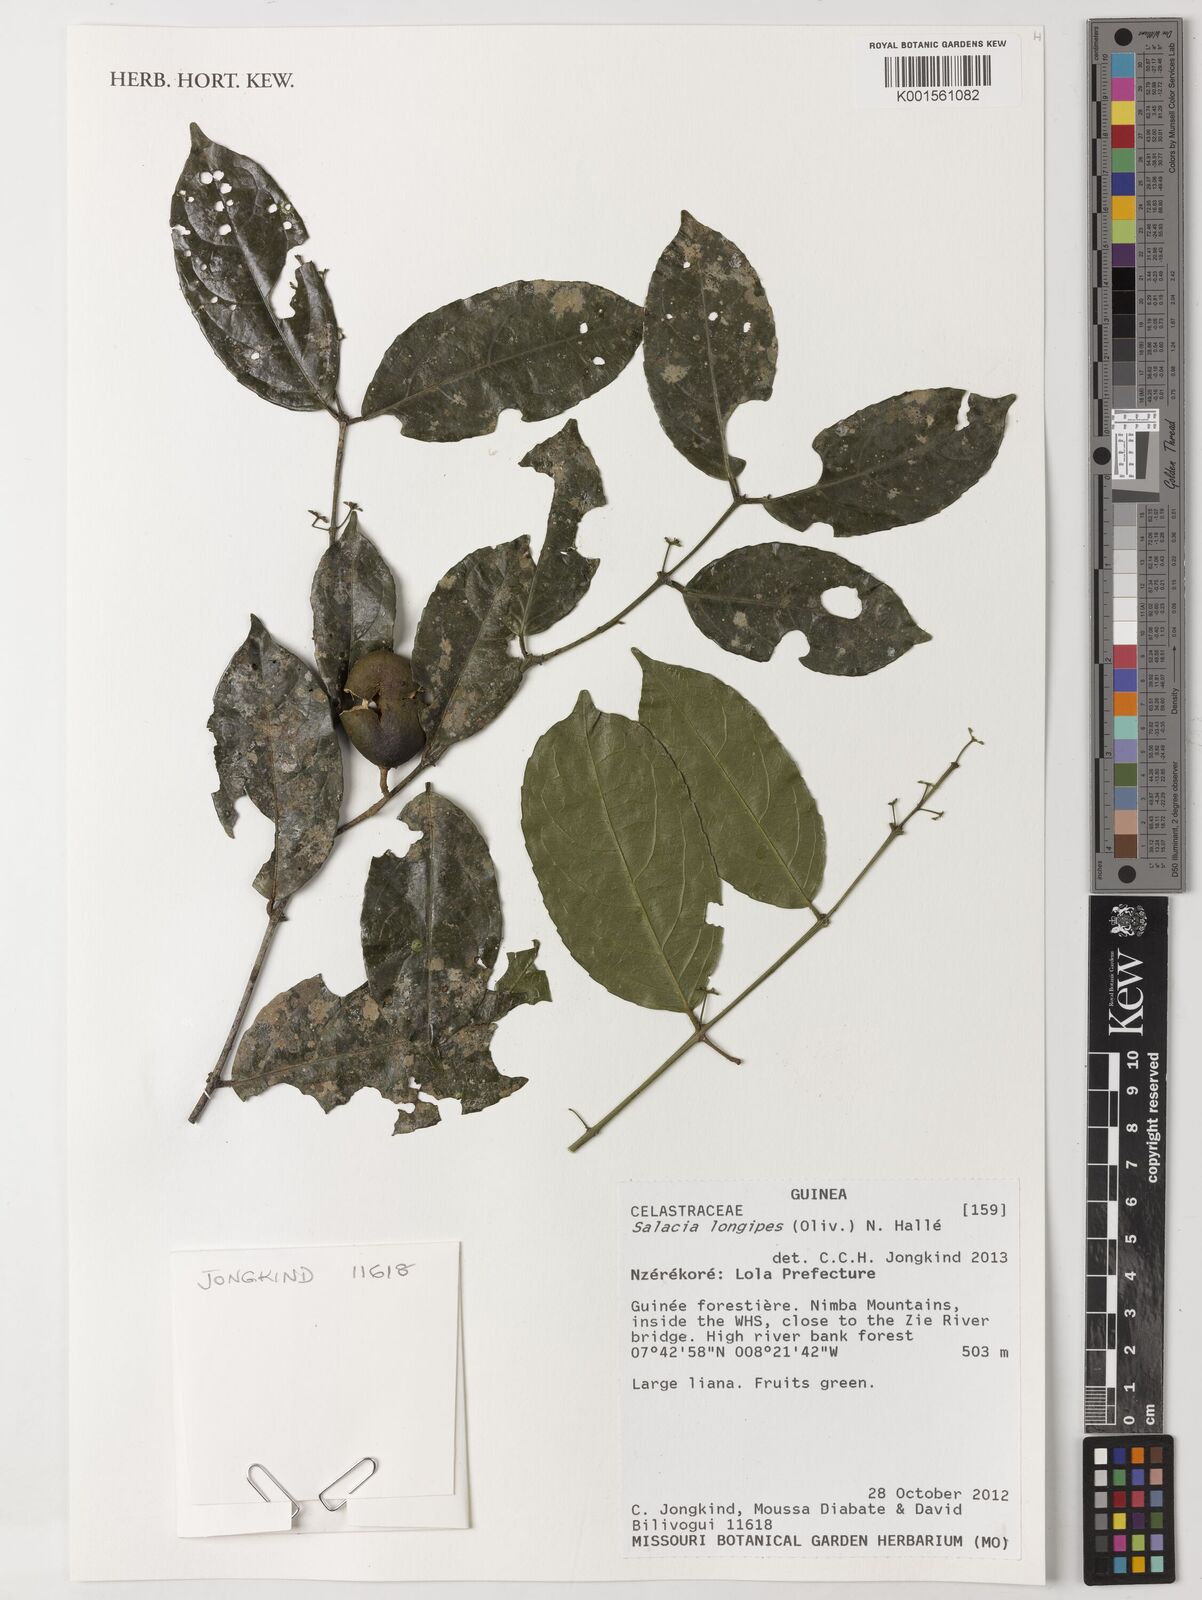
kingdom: Plantae
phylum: Tracheophyta
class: Magnoliopsida
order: Celastrales
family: Celastraceae
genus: Salacia
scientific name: Salacia longipes
